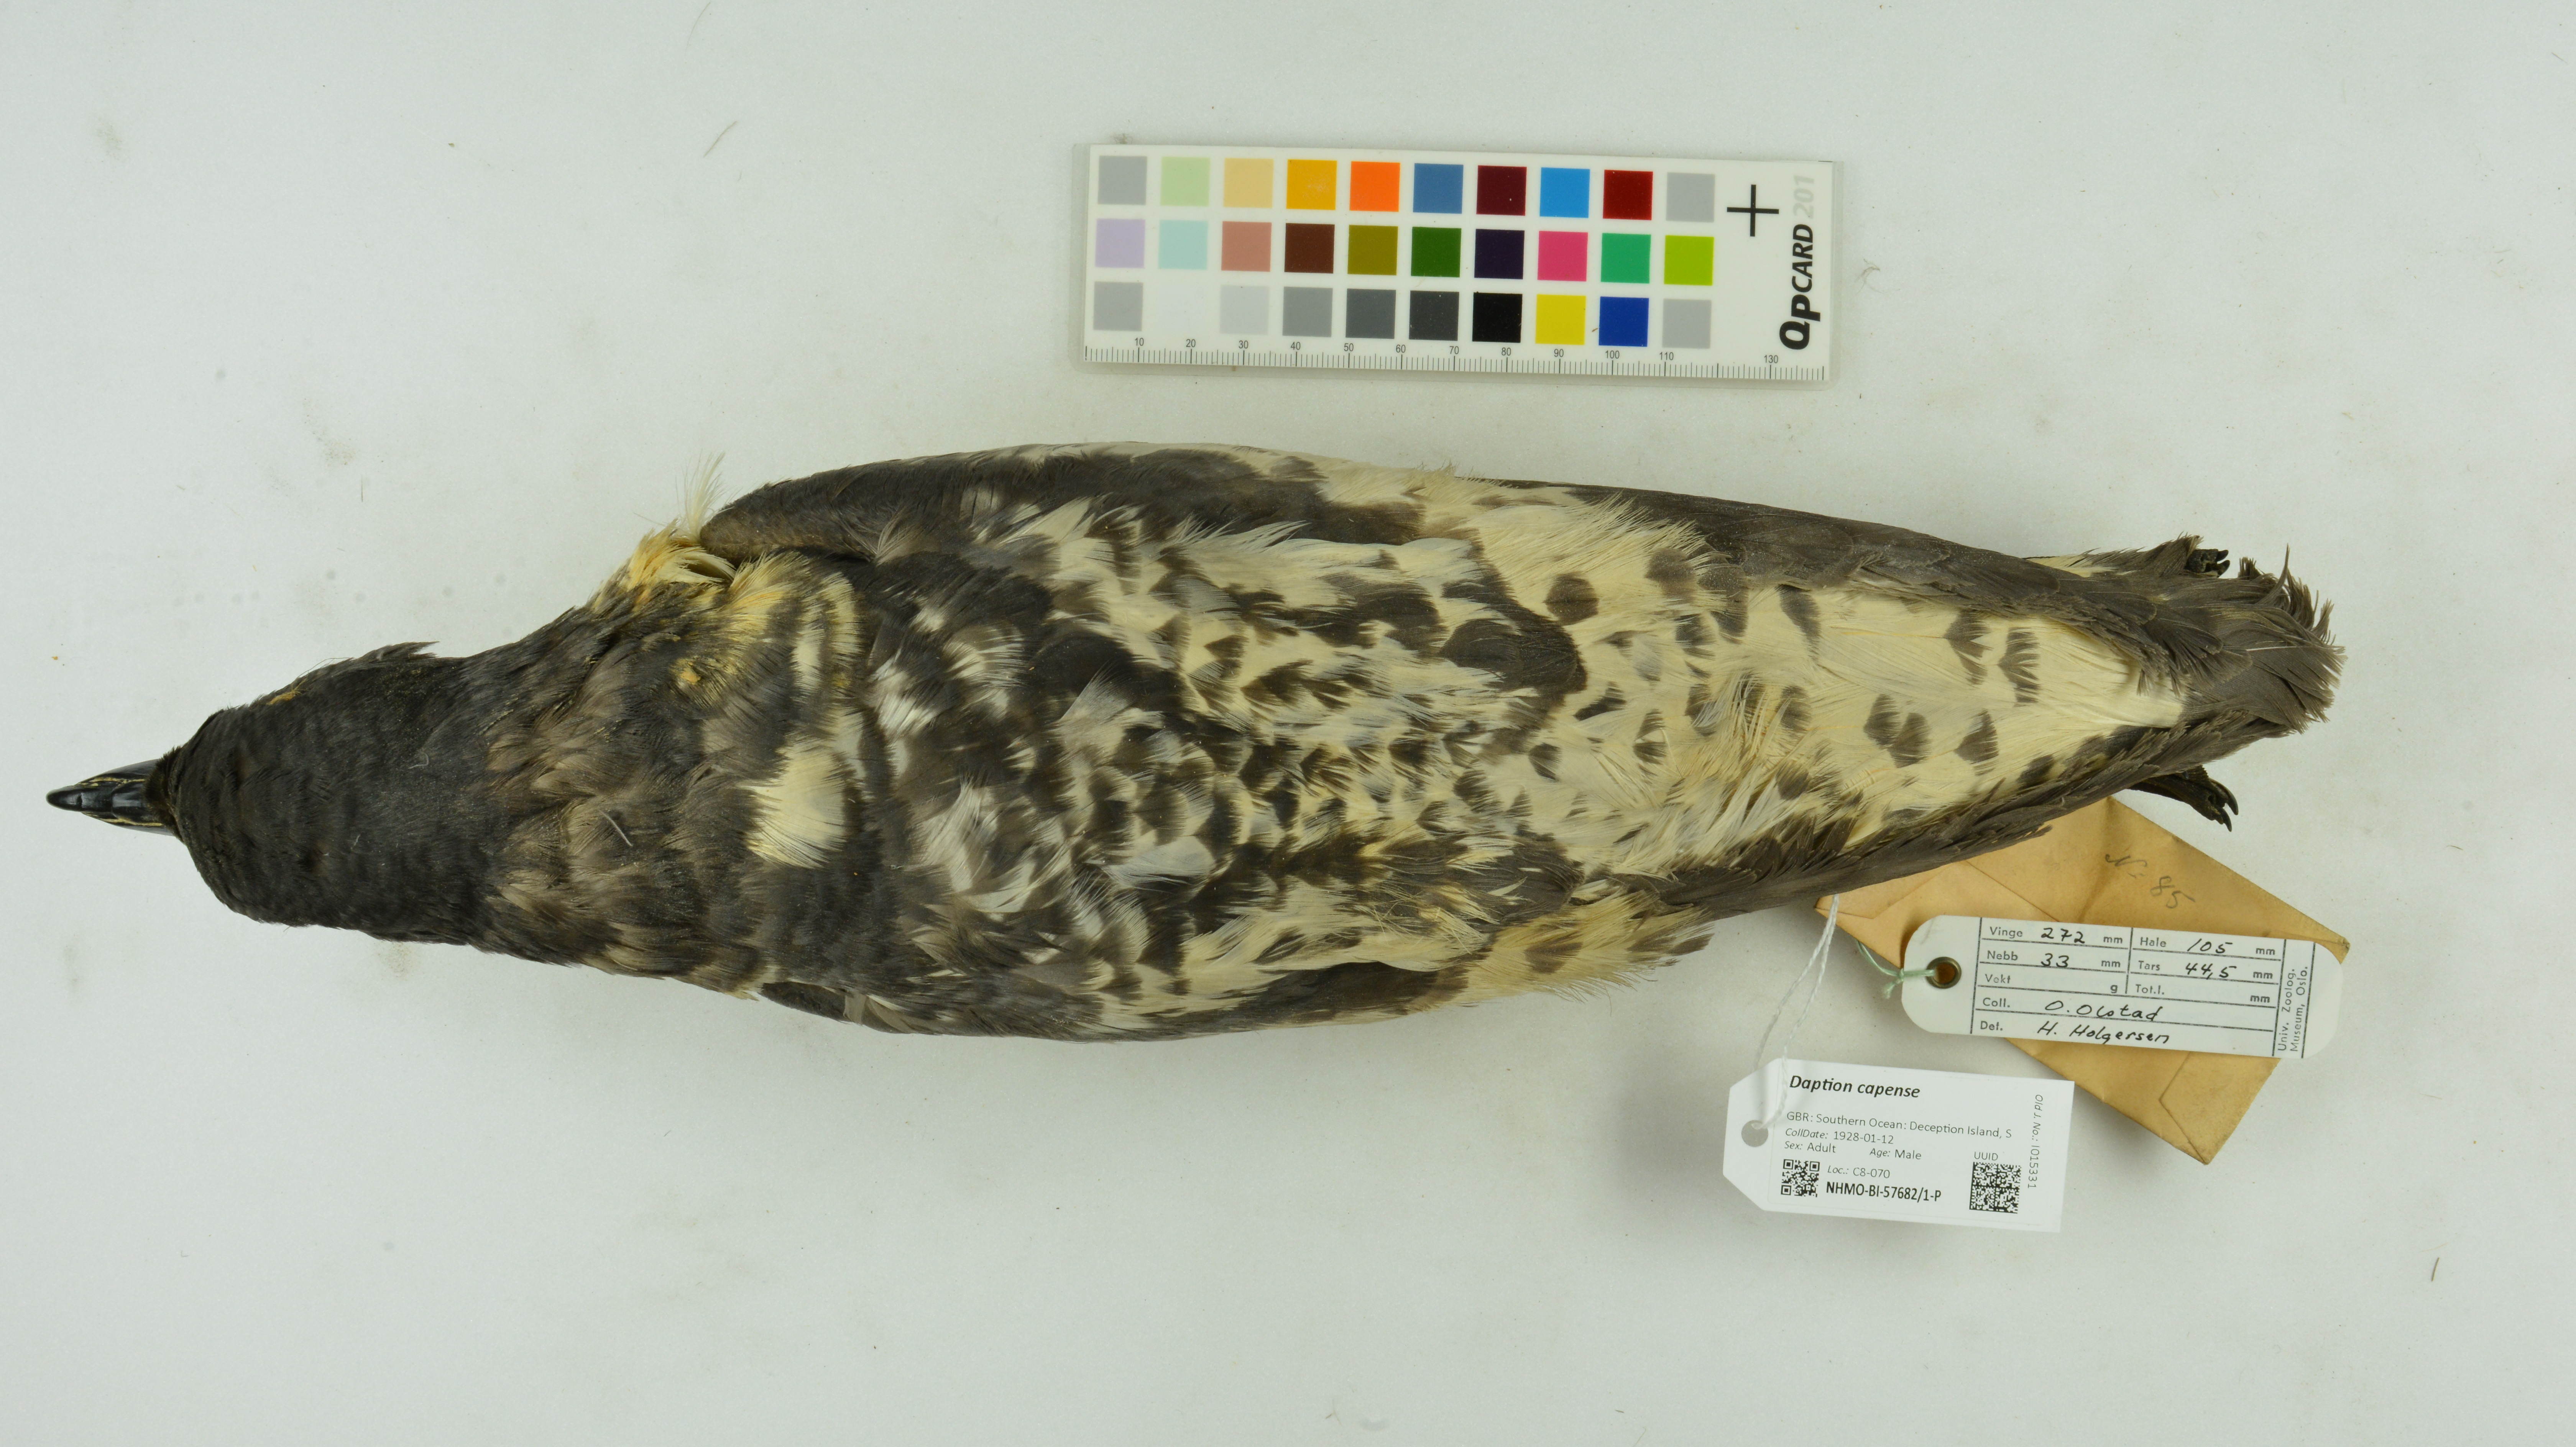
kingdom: Animalia
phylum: Chordata
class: Aves
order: Procellariiformes
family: Procellariidae
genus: Daption
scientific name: Daption capense
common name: Cape petrel
